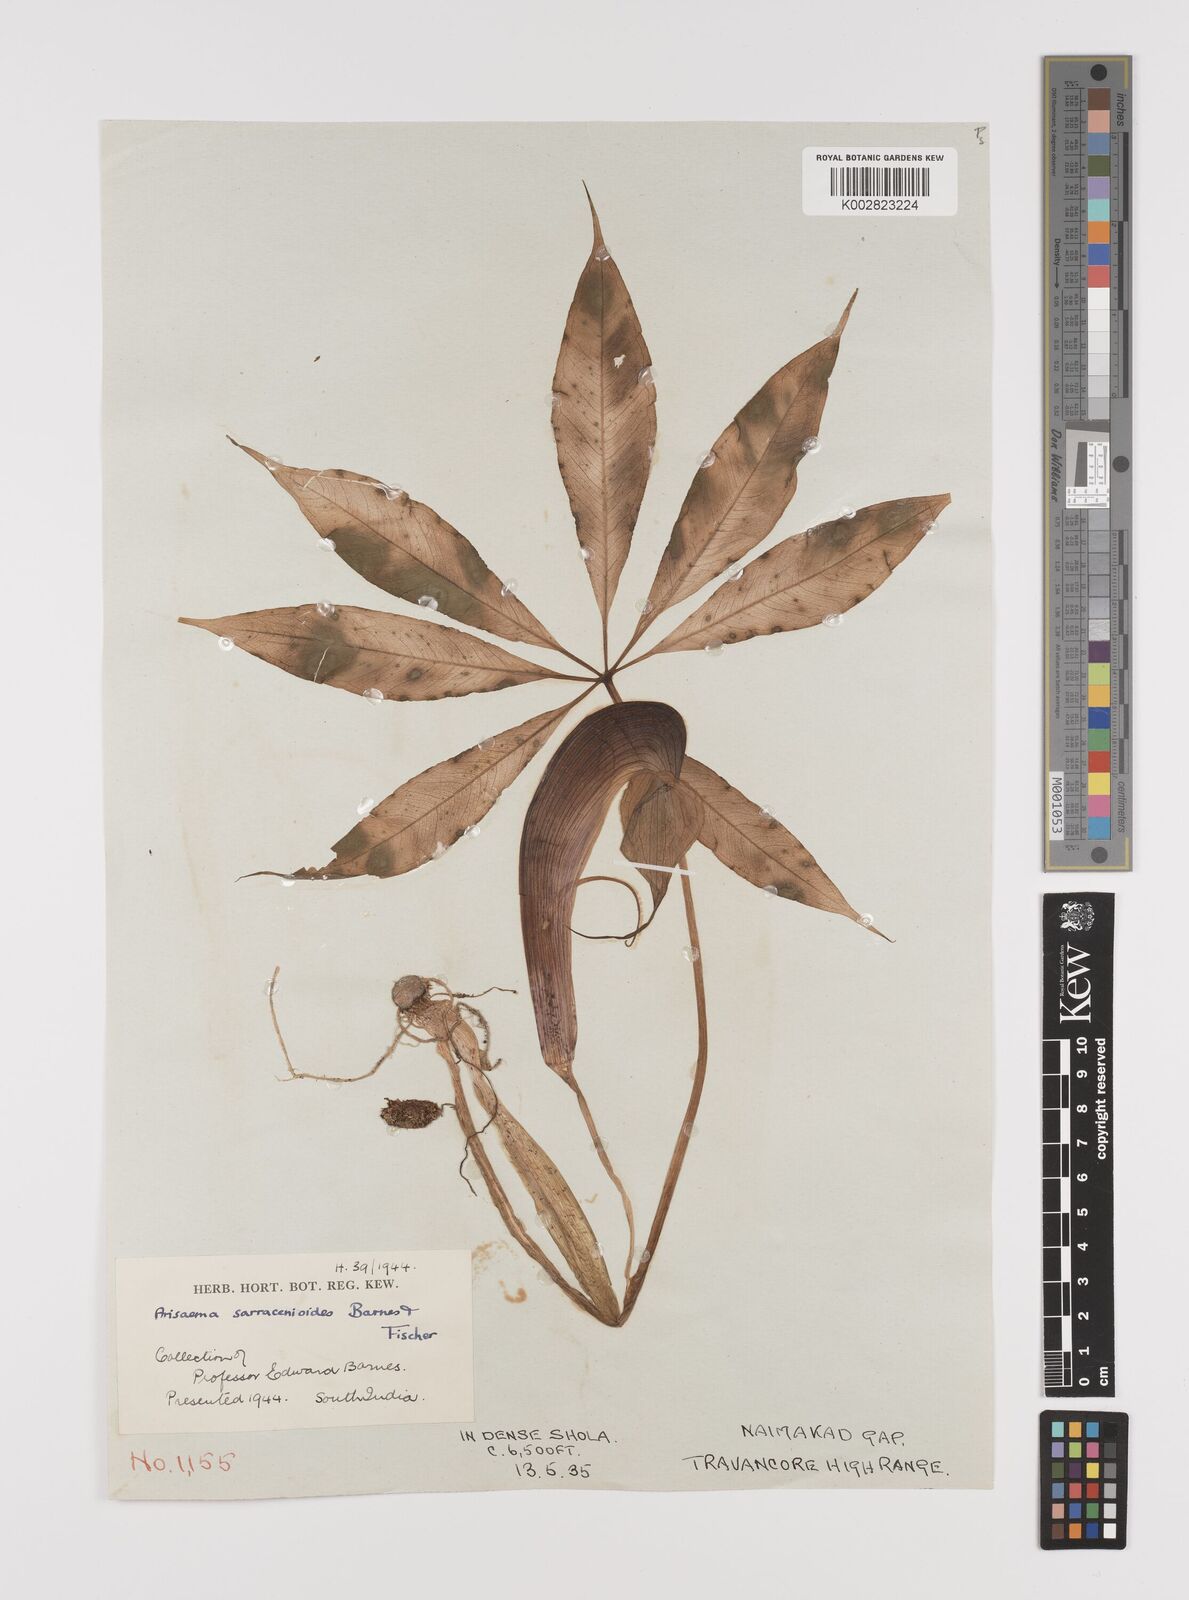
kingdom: Plantae
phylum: Tracheophyta
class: Liliopsida
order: Alismatales
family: Araceae
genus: Arisaema
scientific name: Arisaema sarracenioides
